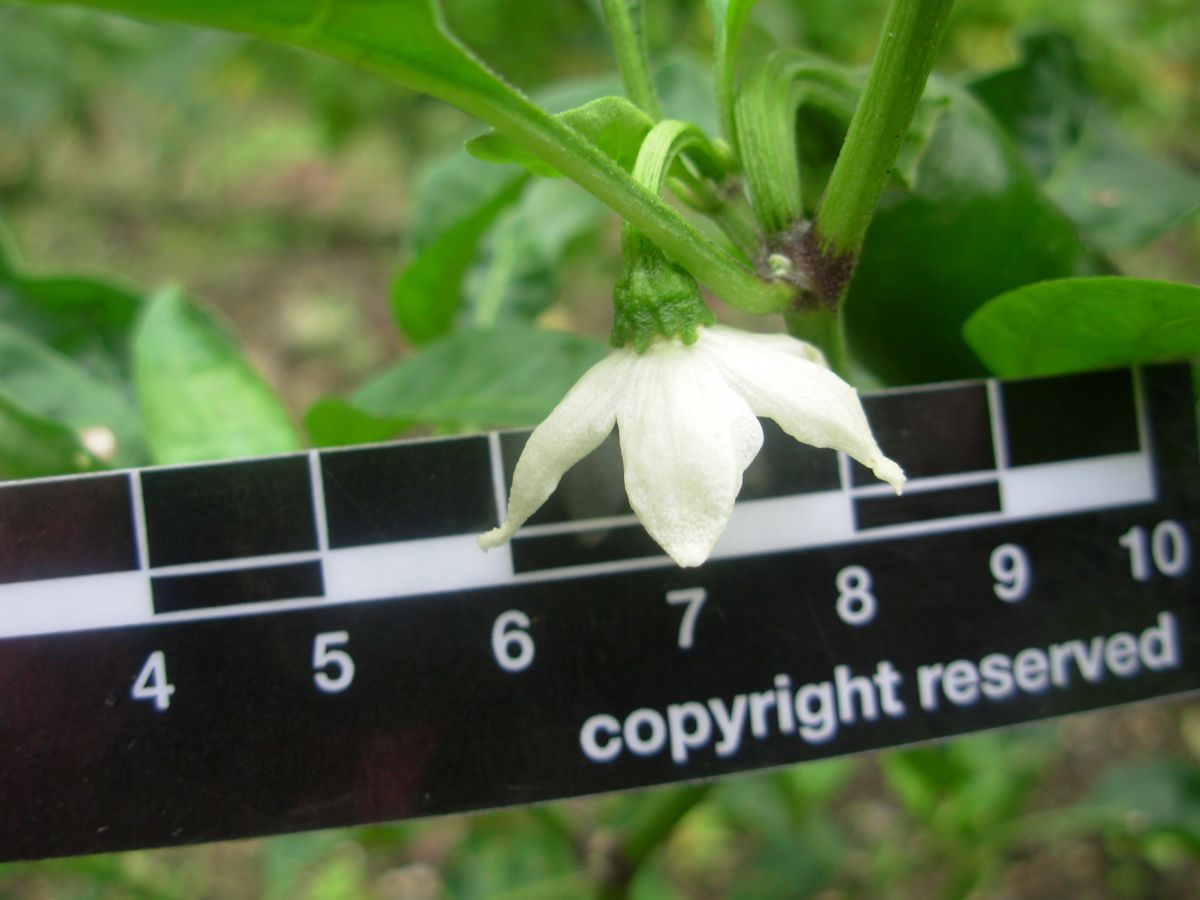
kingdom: Plantae
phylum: Tracheophyta
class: Magnoliopsida
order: Solanales
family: Solanaceae
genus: Capsicum
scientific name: Capsicum annuum
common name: Sweet pepper
